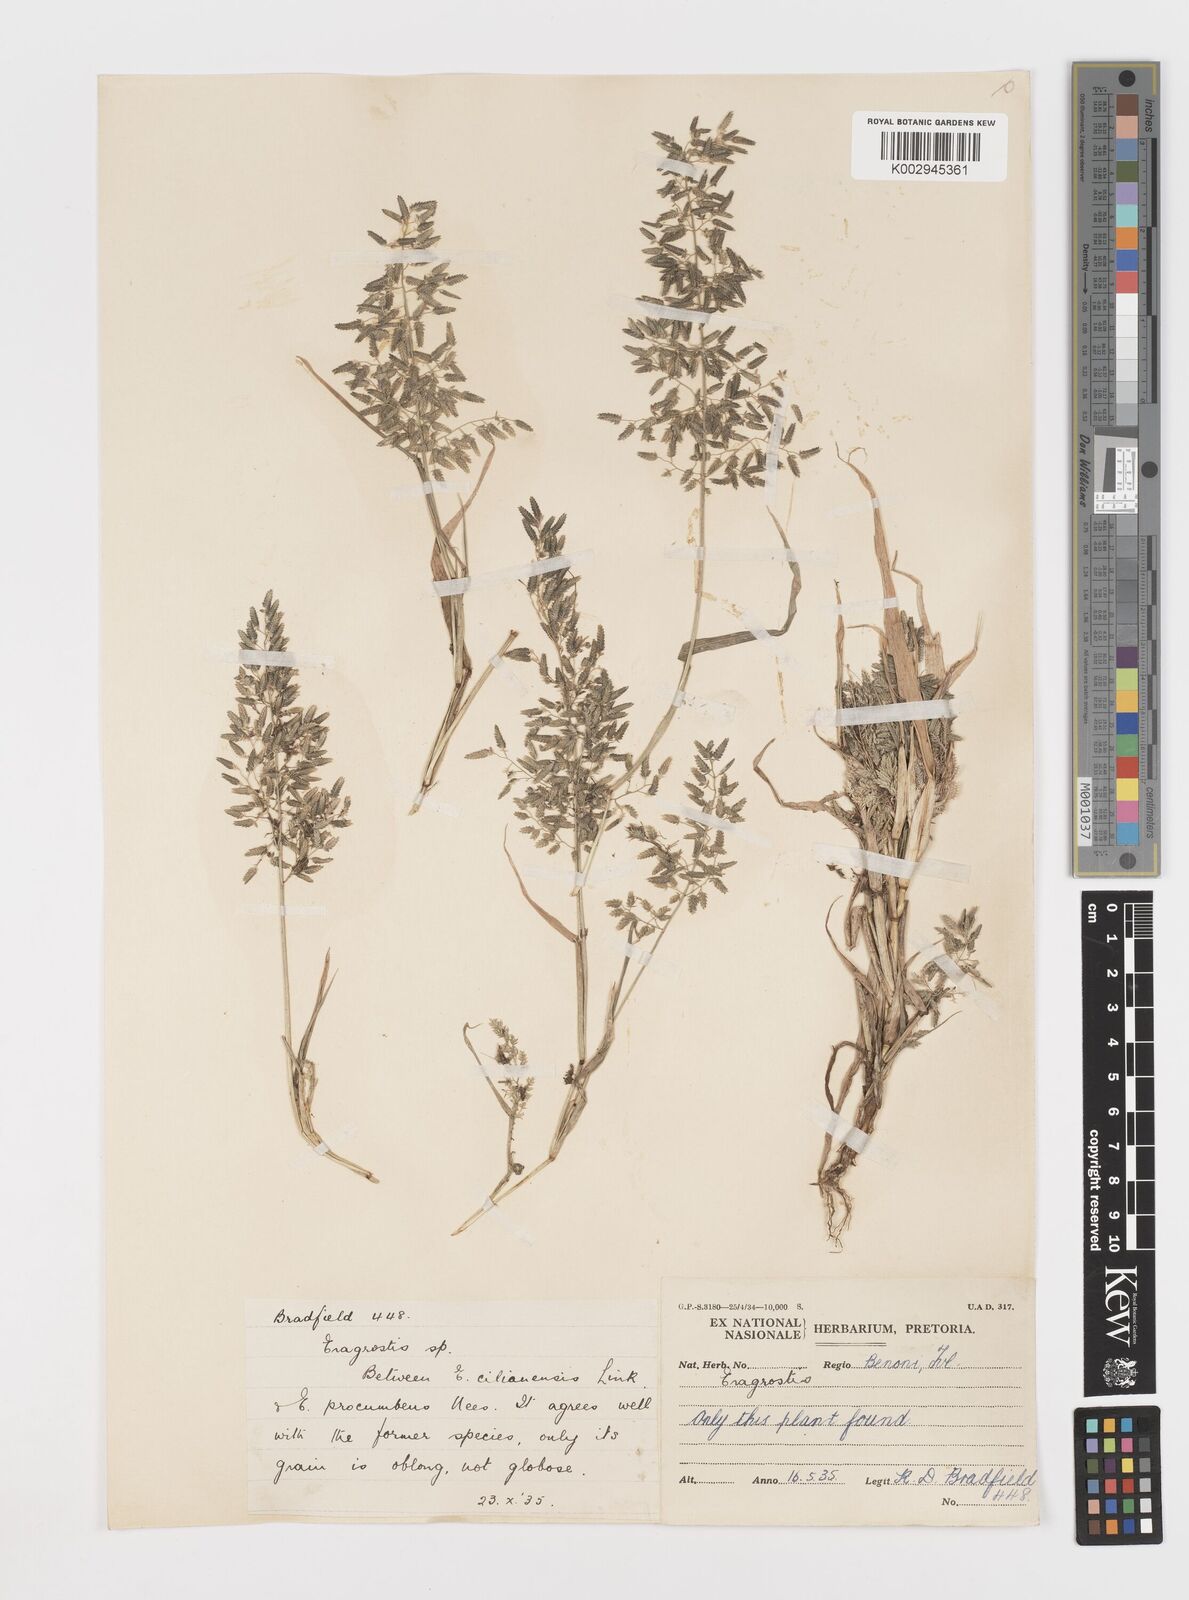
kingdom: Plantae
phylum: Tracheophyta
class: Liliopsida
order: Poales
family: Poaceae
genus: Eragrostis
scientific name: Eragrostis cilianensis
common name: Stinkgrass
